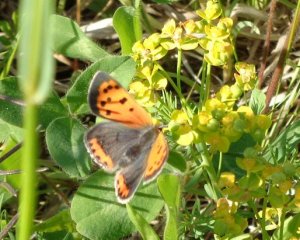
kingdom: Animalia
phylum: Arthropoda
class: Insecta
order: Lepidoptera
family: Lycaenidae
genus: Lycaena
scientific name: Lycaena phlaeas
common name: American Copper
